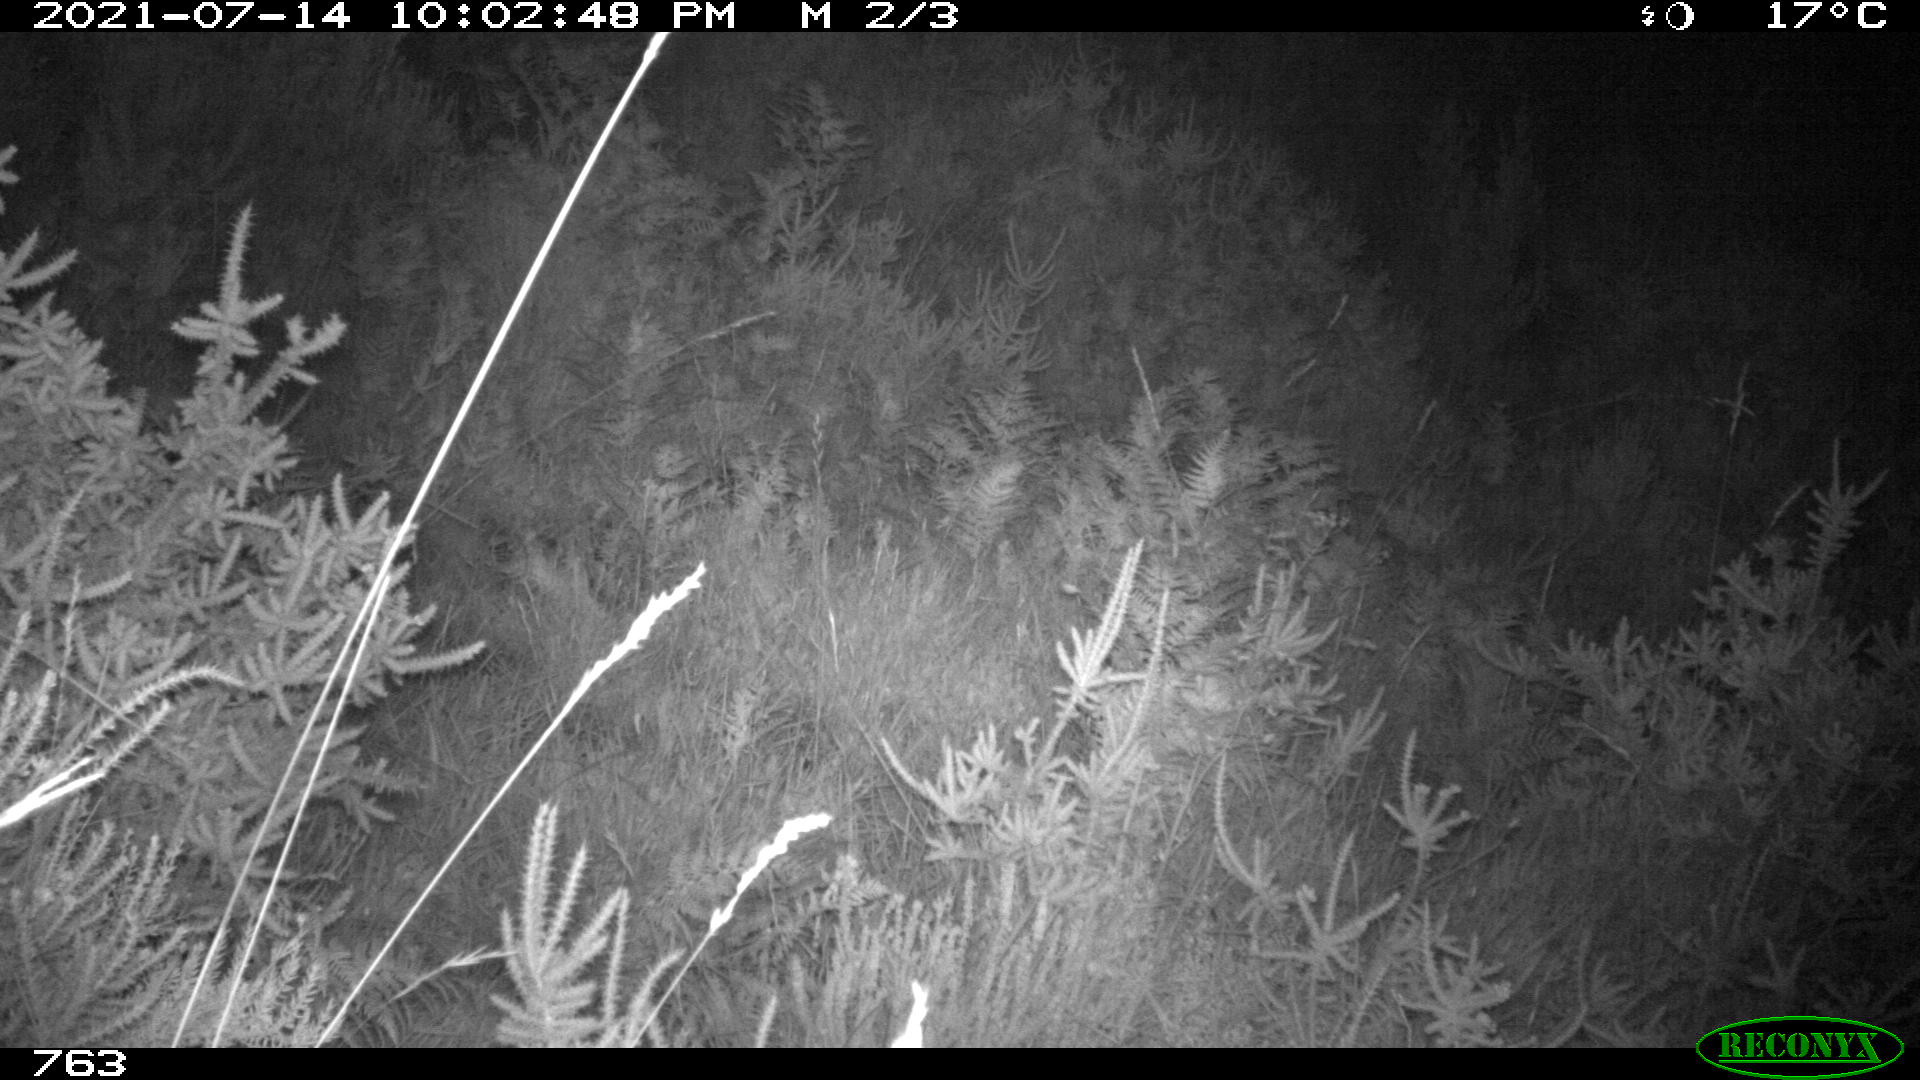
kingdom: Animalia
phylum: Chordata
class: Mammalia
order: Carnivora
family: Canidae
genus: Vulpes
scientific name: Vulpes vulpes
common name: Red fox
